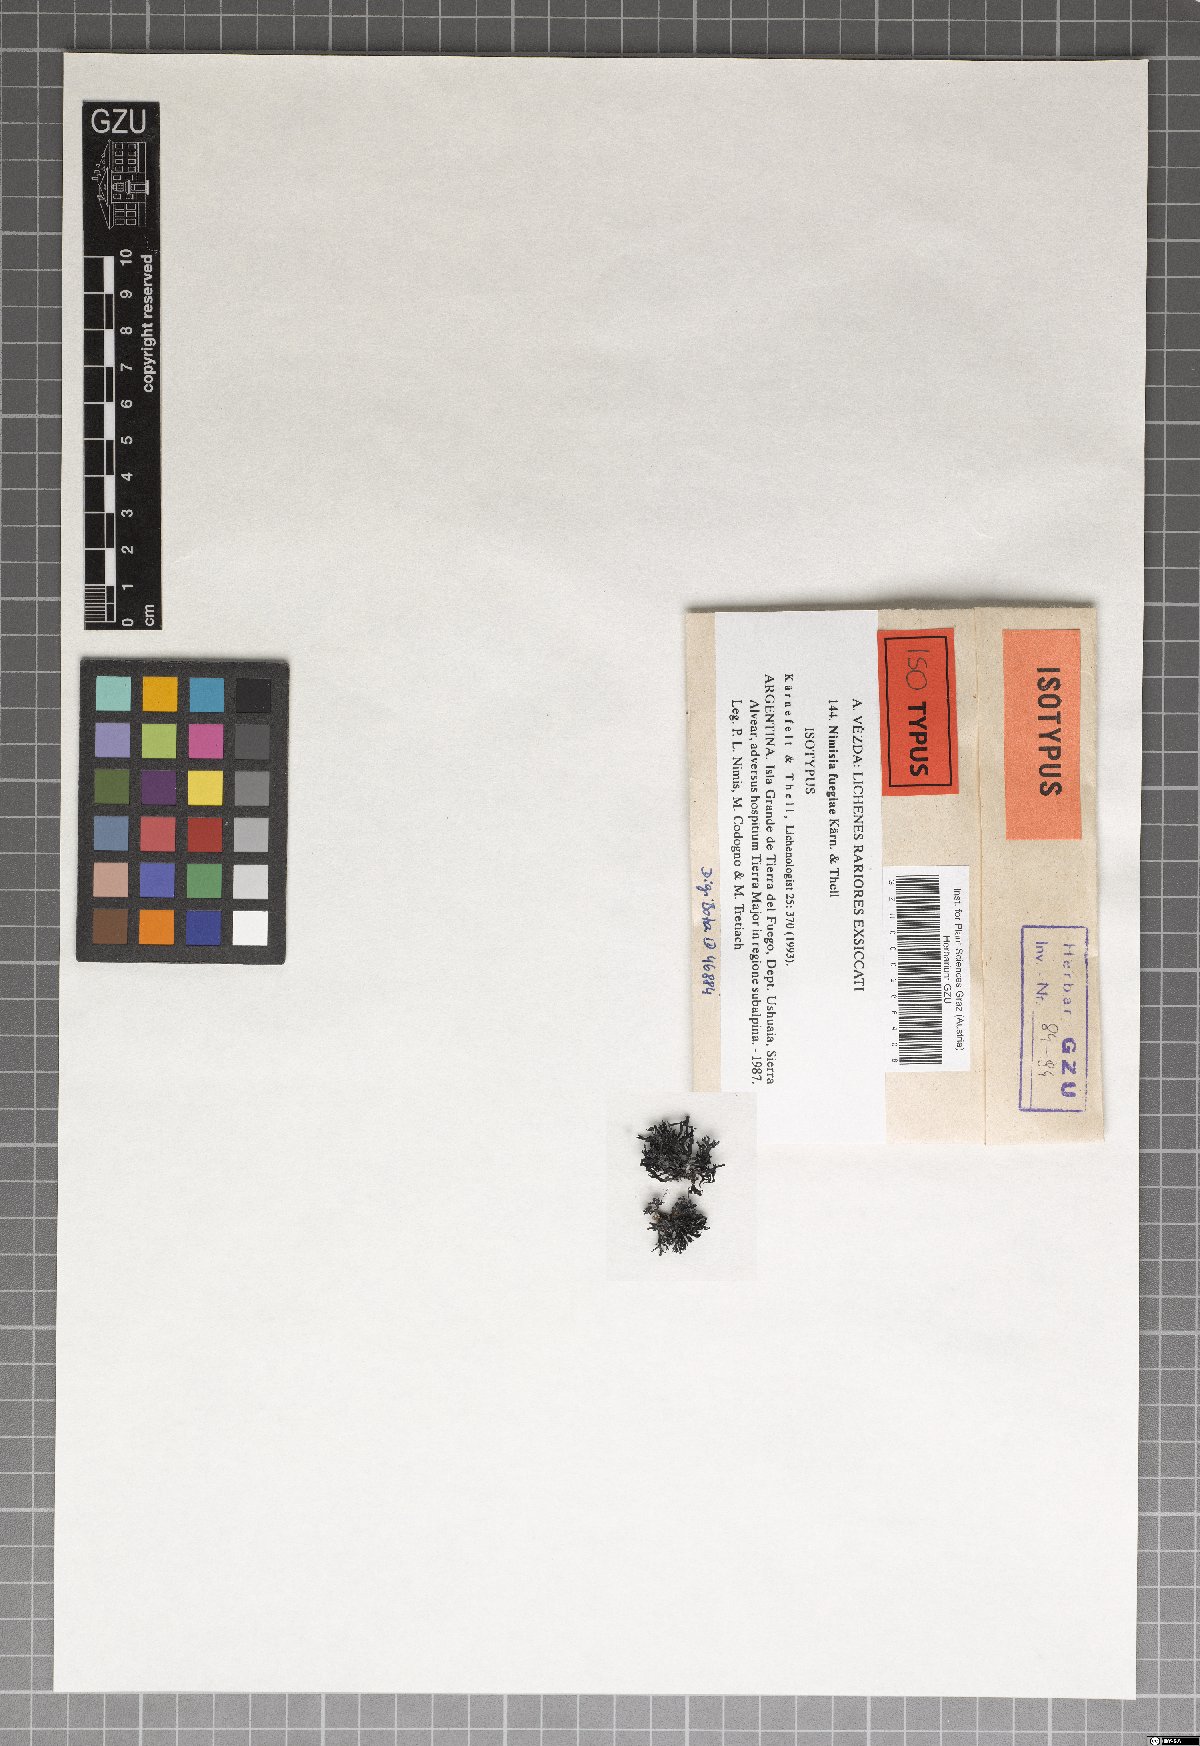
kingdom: Fungi
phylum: Ascomycota
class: Lecanoromycetes
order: Lecanorales
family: Parmeliaceae
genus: Himantormia
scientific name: Himantormia deusta
